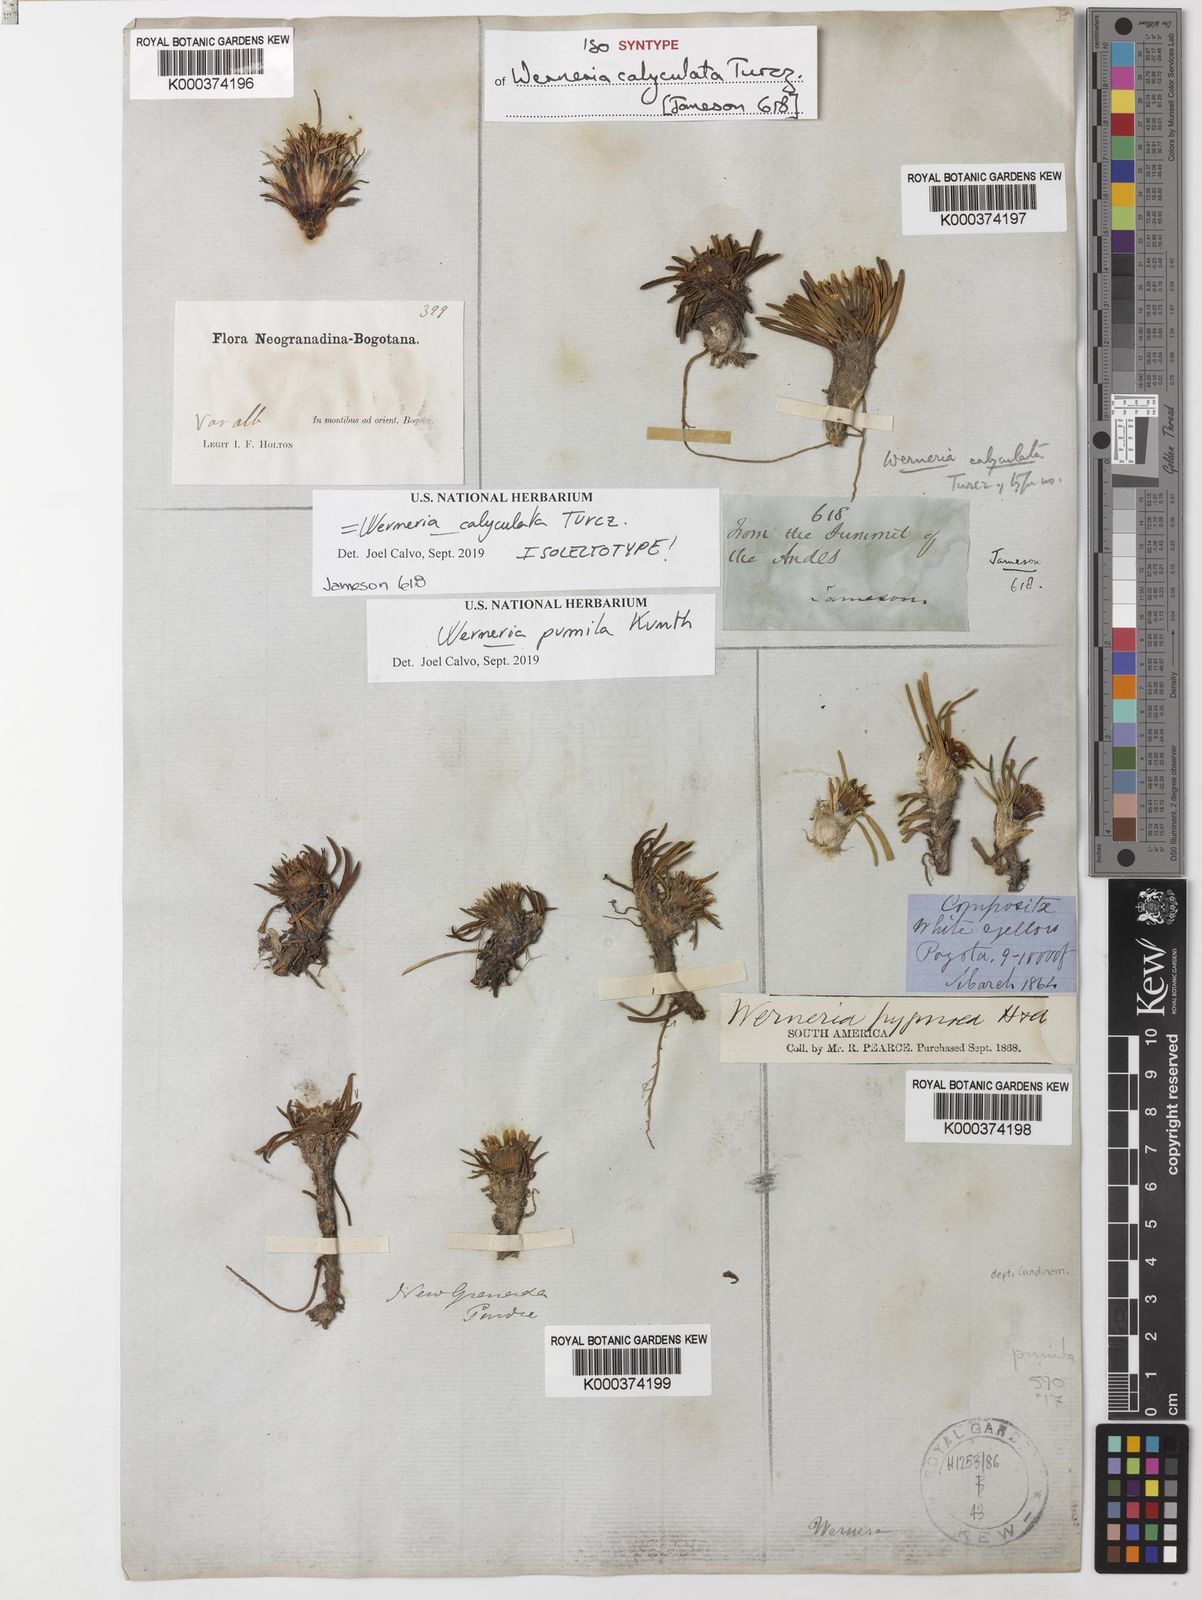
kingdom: Plantae
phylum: Tracheophyta
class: Magnoliopsida
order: Asterales
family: Asteraceae
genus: Rockhausenia
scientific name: Rockhausenia pumila
